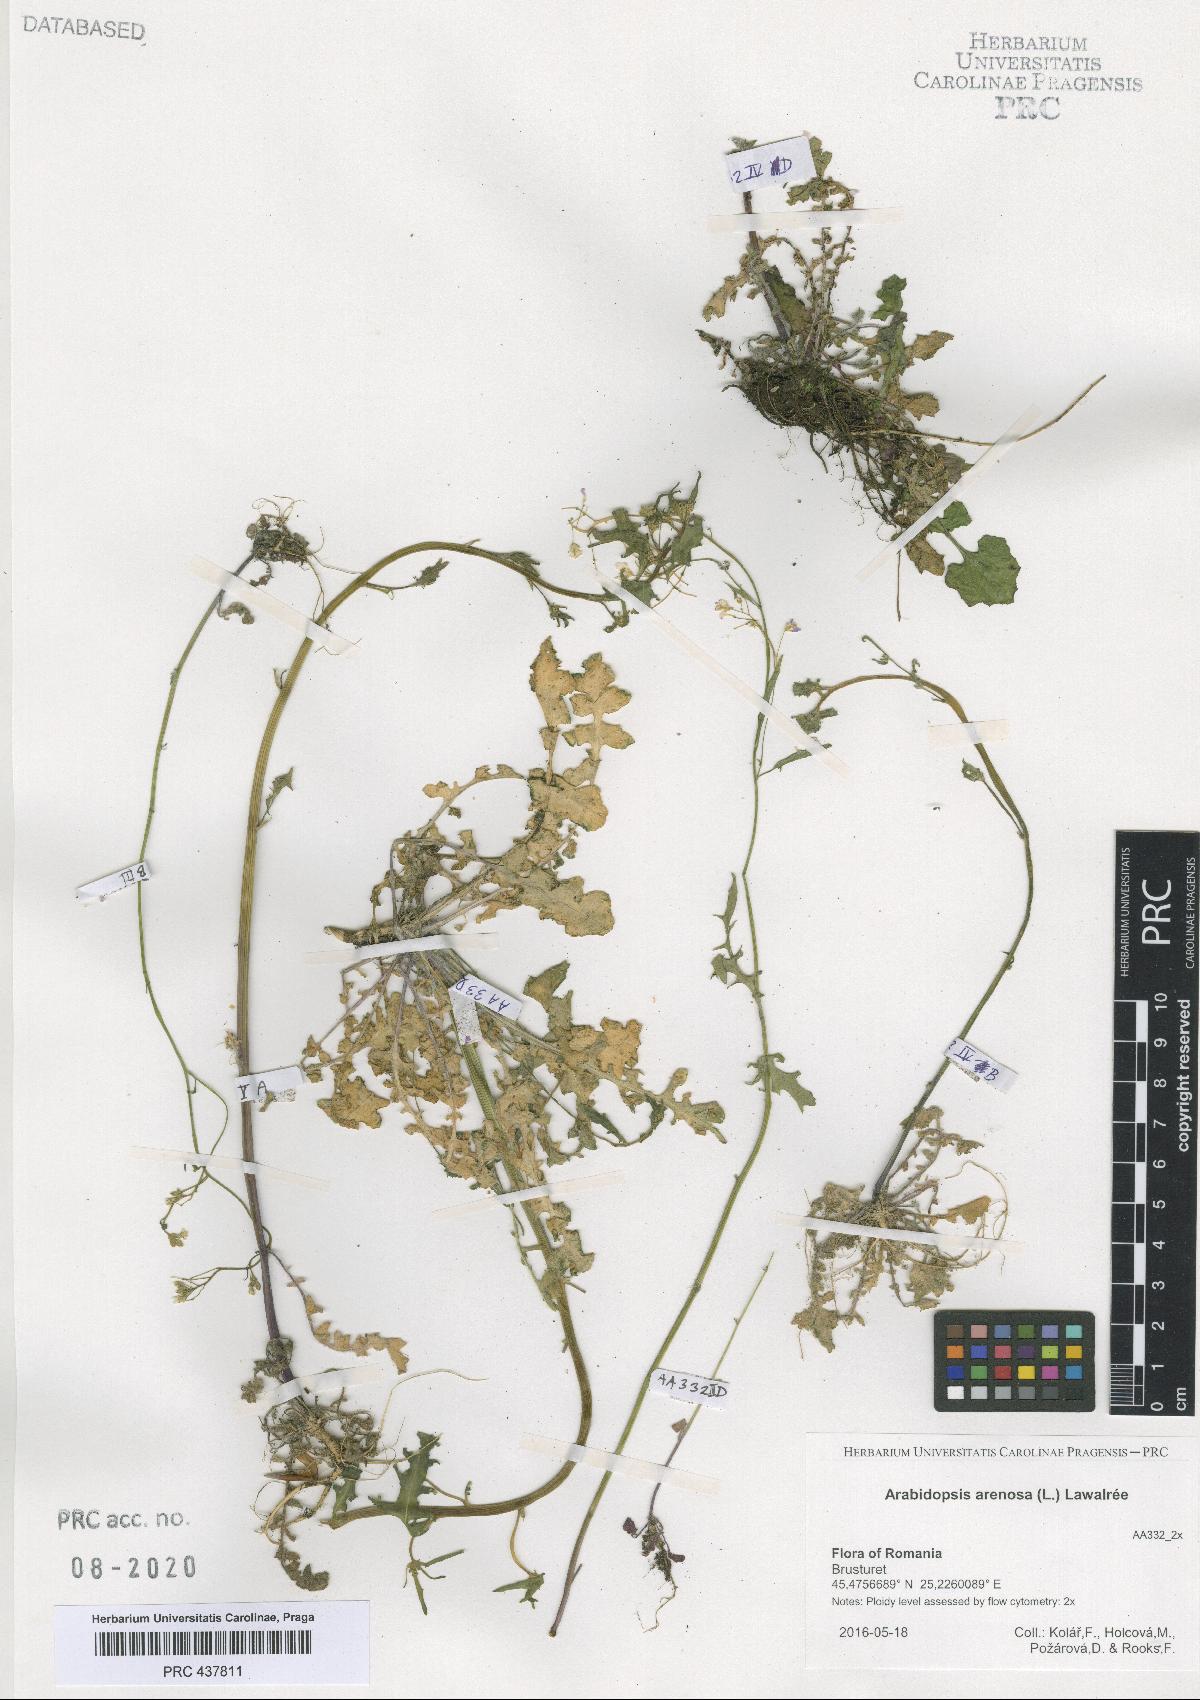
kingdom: Plantae
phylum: Tracheophyta
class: Magnoliopsida
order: Brassicales
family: Brassicaceae
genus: Arabidopsis
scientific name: Arabidopsis arenosa
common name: Sand rock-cress
